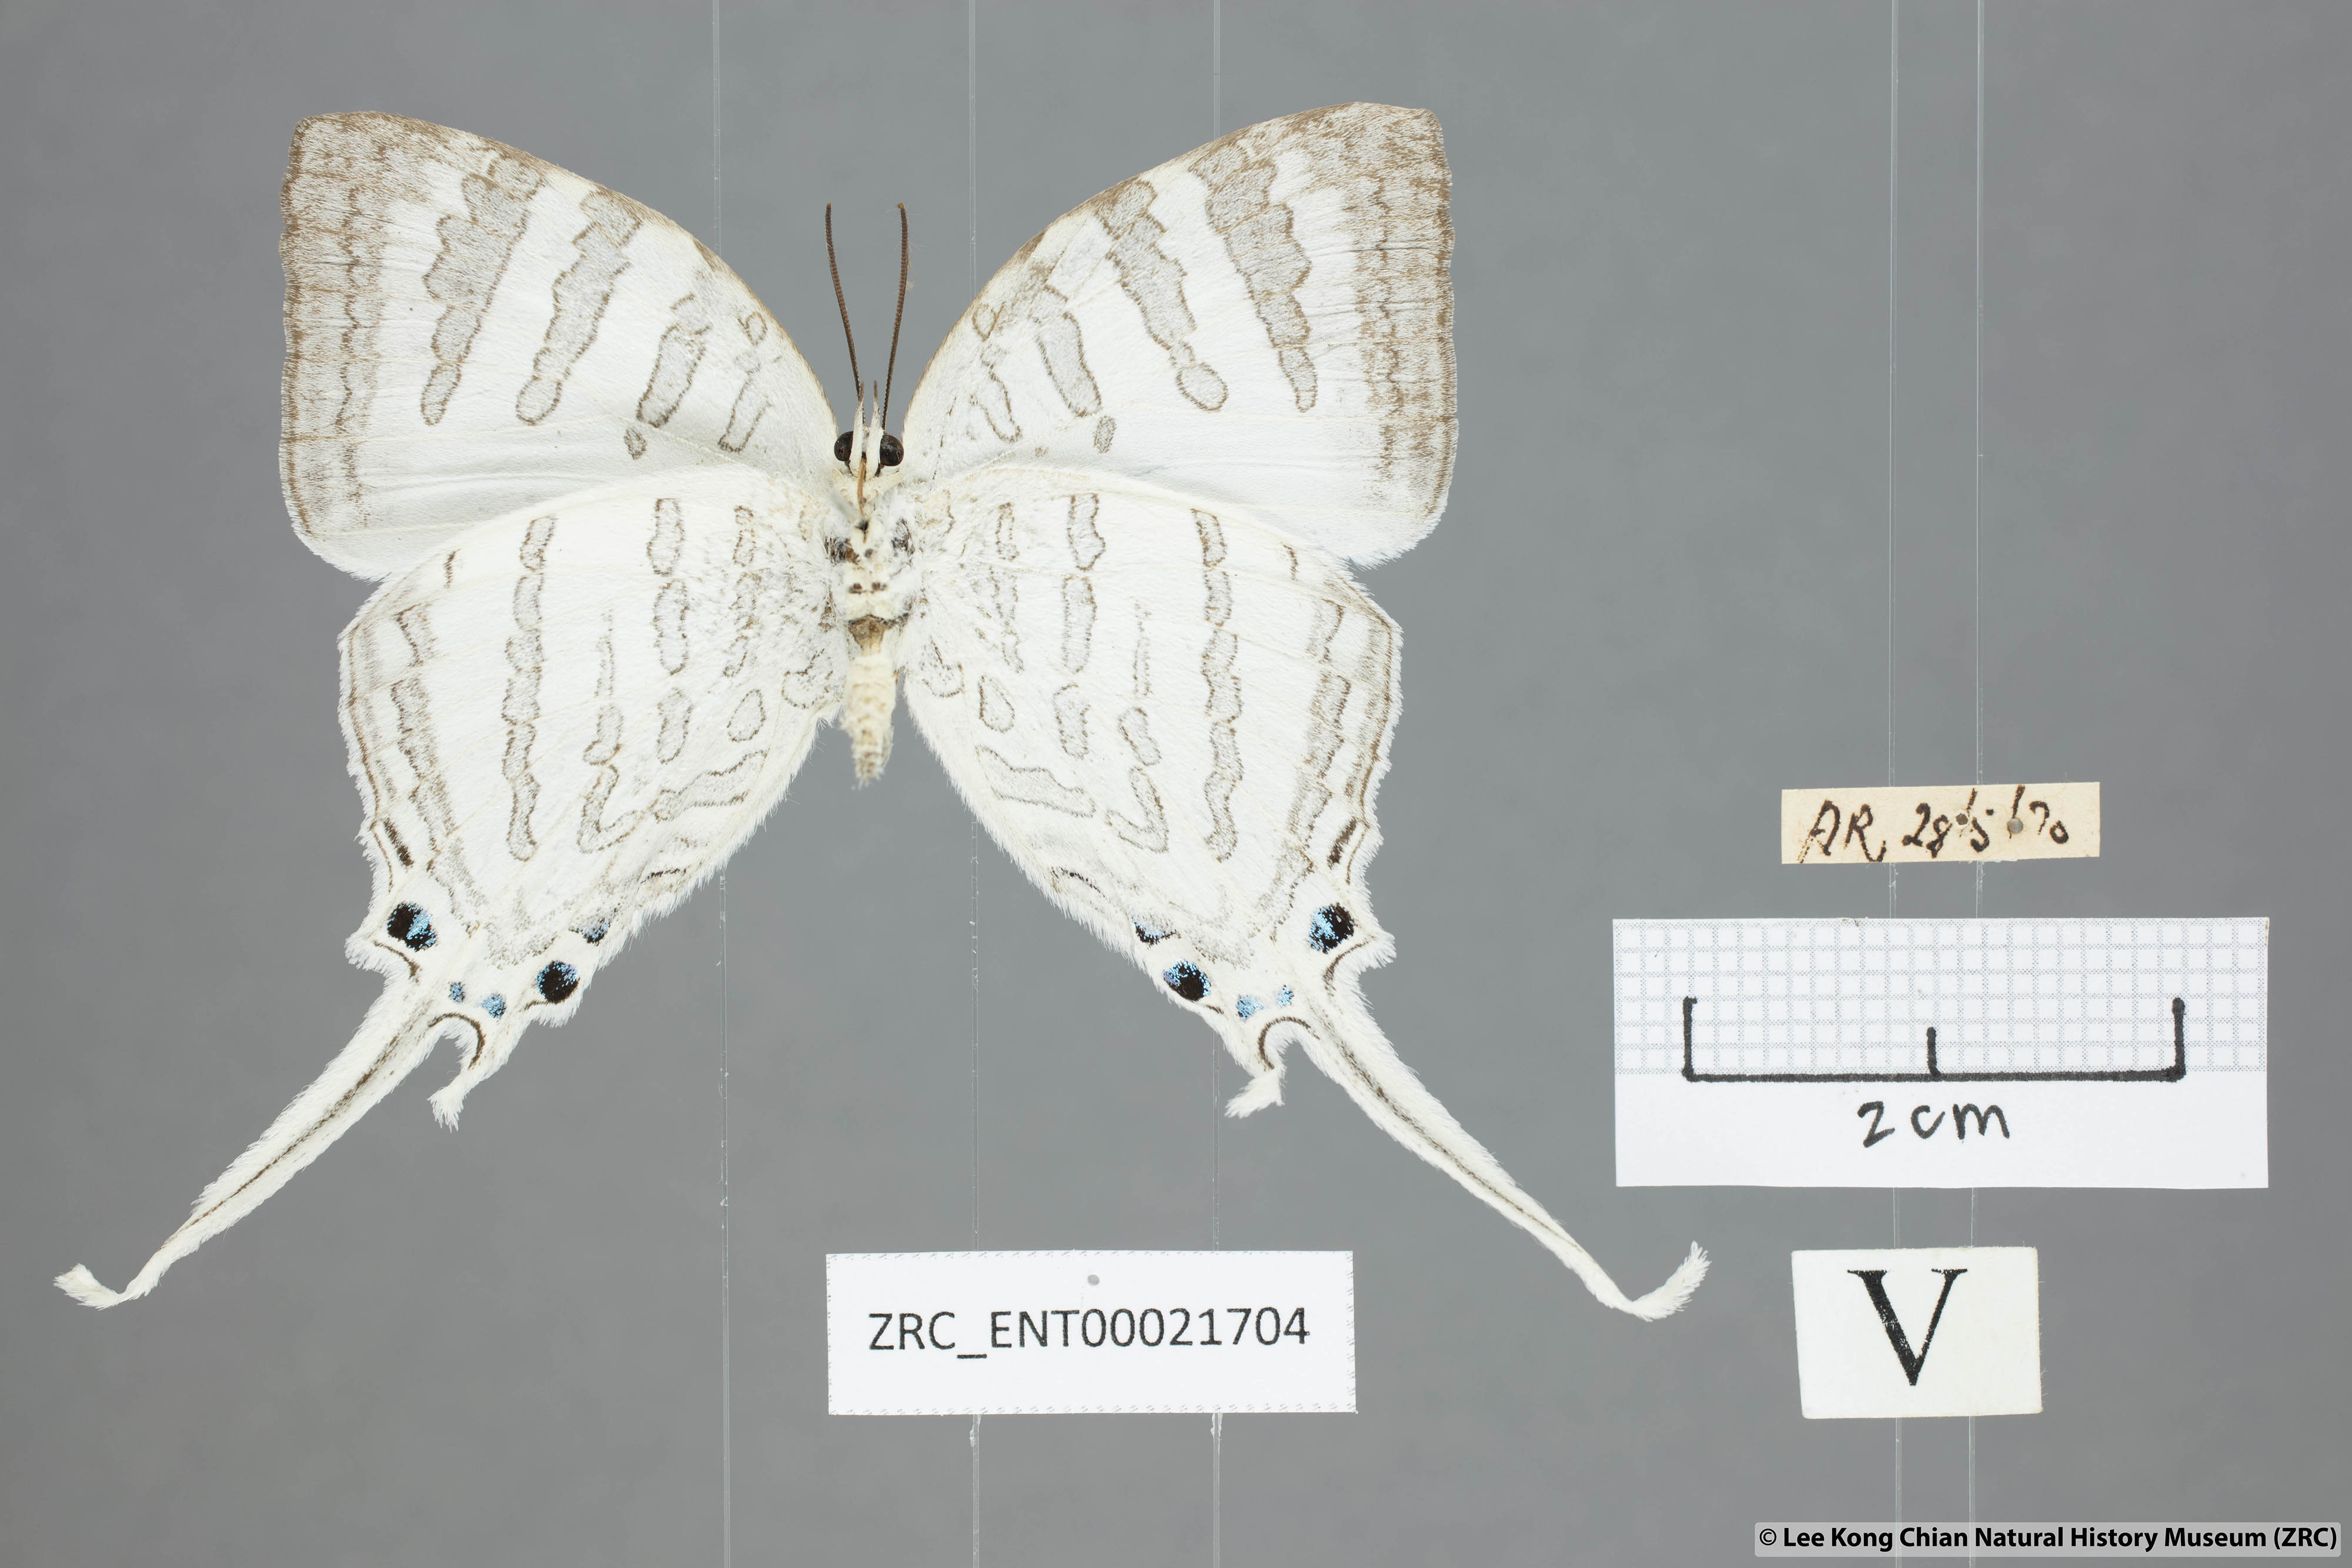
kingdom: Animalia
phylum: Arthropoda
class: Insecta
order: Lepidoptera
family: Lycaenidae
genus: Neomyrina
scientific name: Neomyrina nivea
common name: White imperial butterfly
